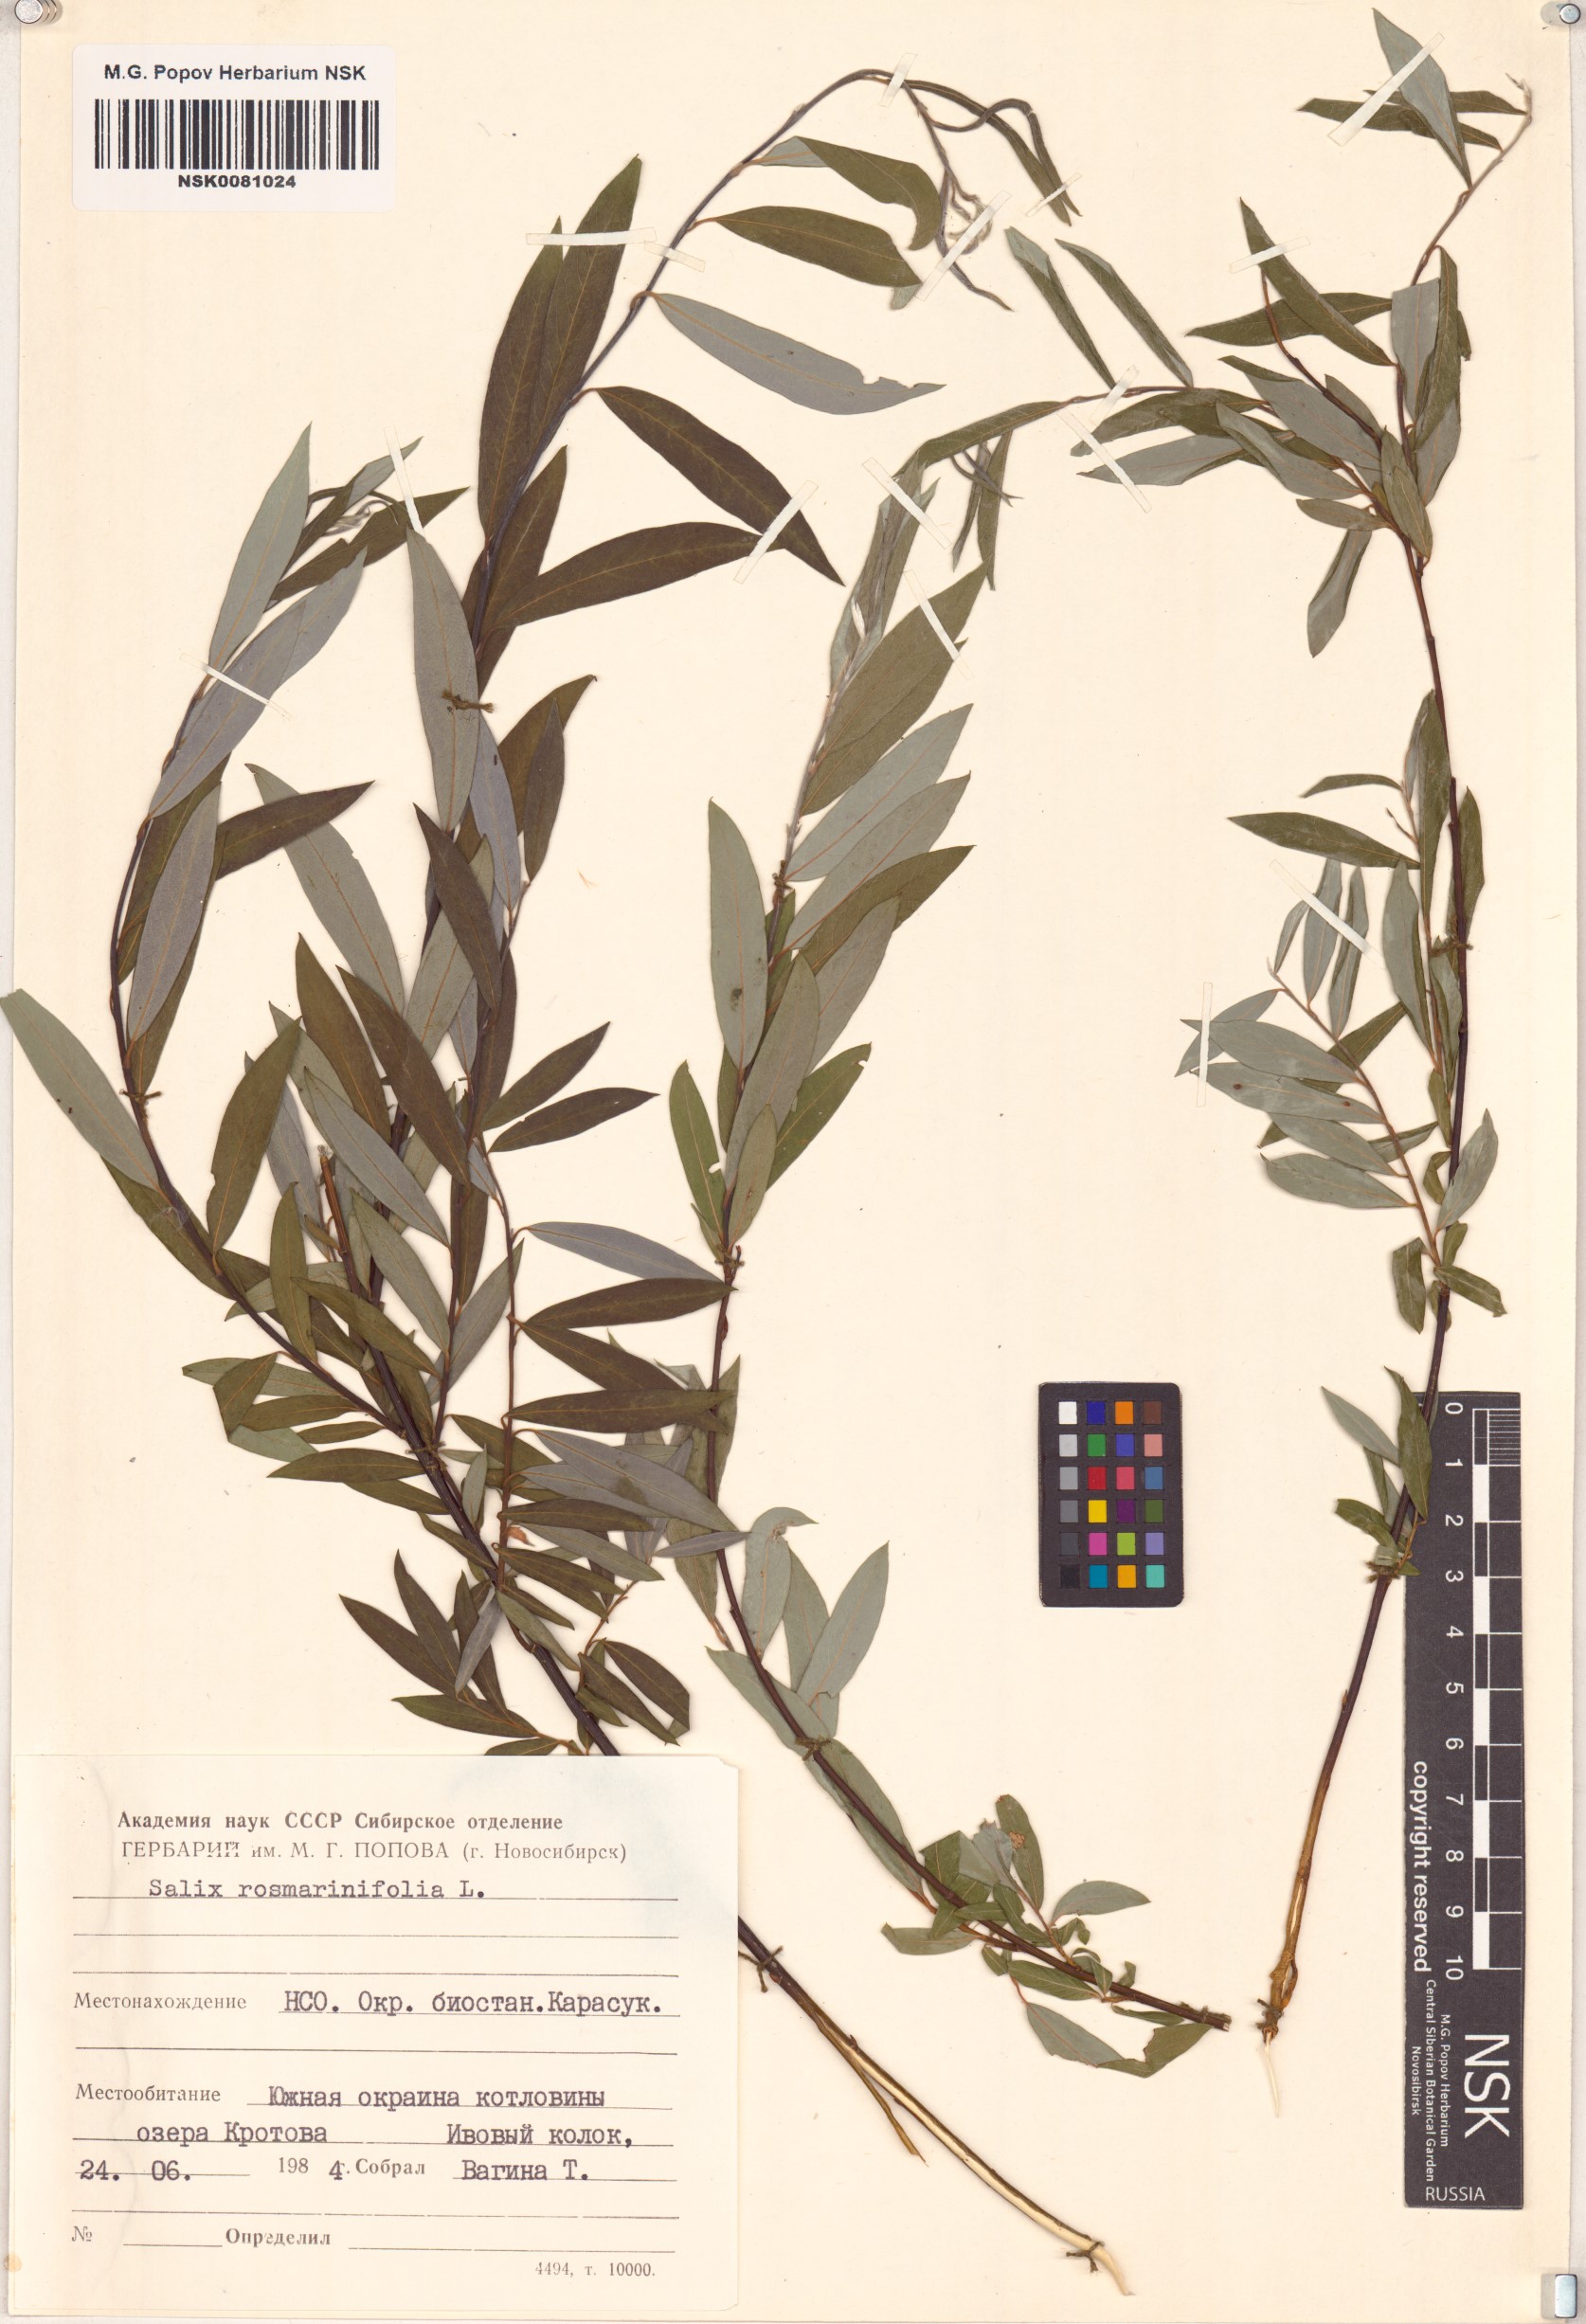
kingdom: Plantae
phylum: Tracheophyta
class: Magnoliopsida
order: Malpighiales
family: Salicaceae
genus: Salix
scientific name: Salix rosmarinifolia
